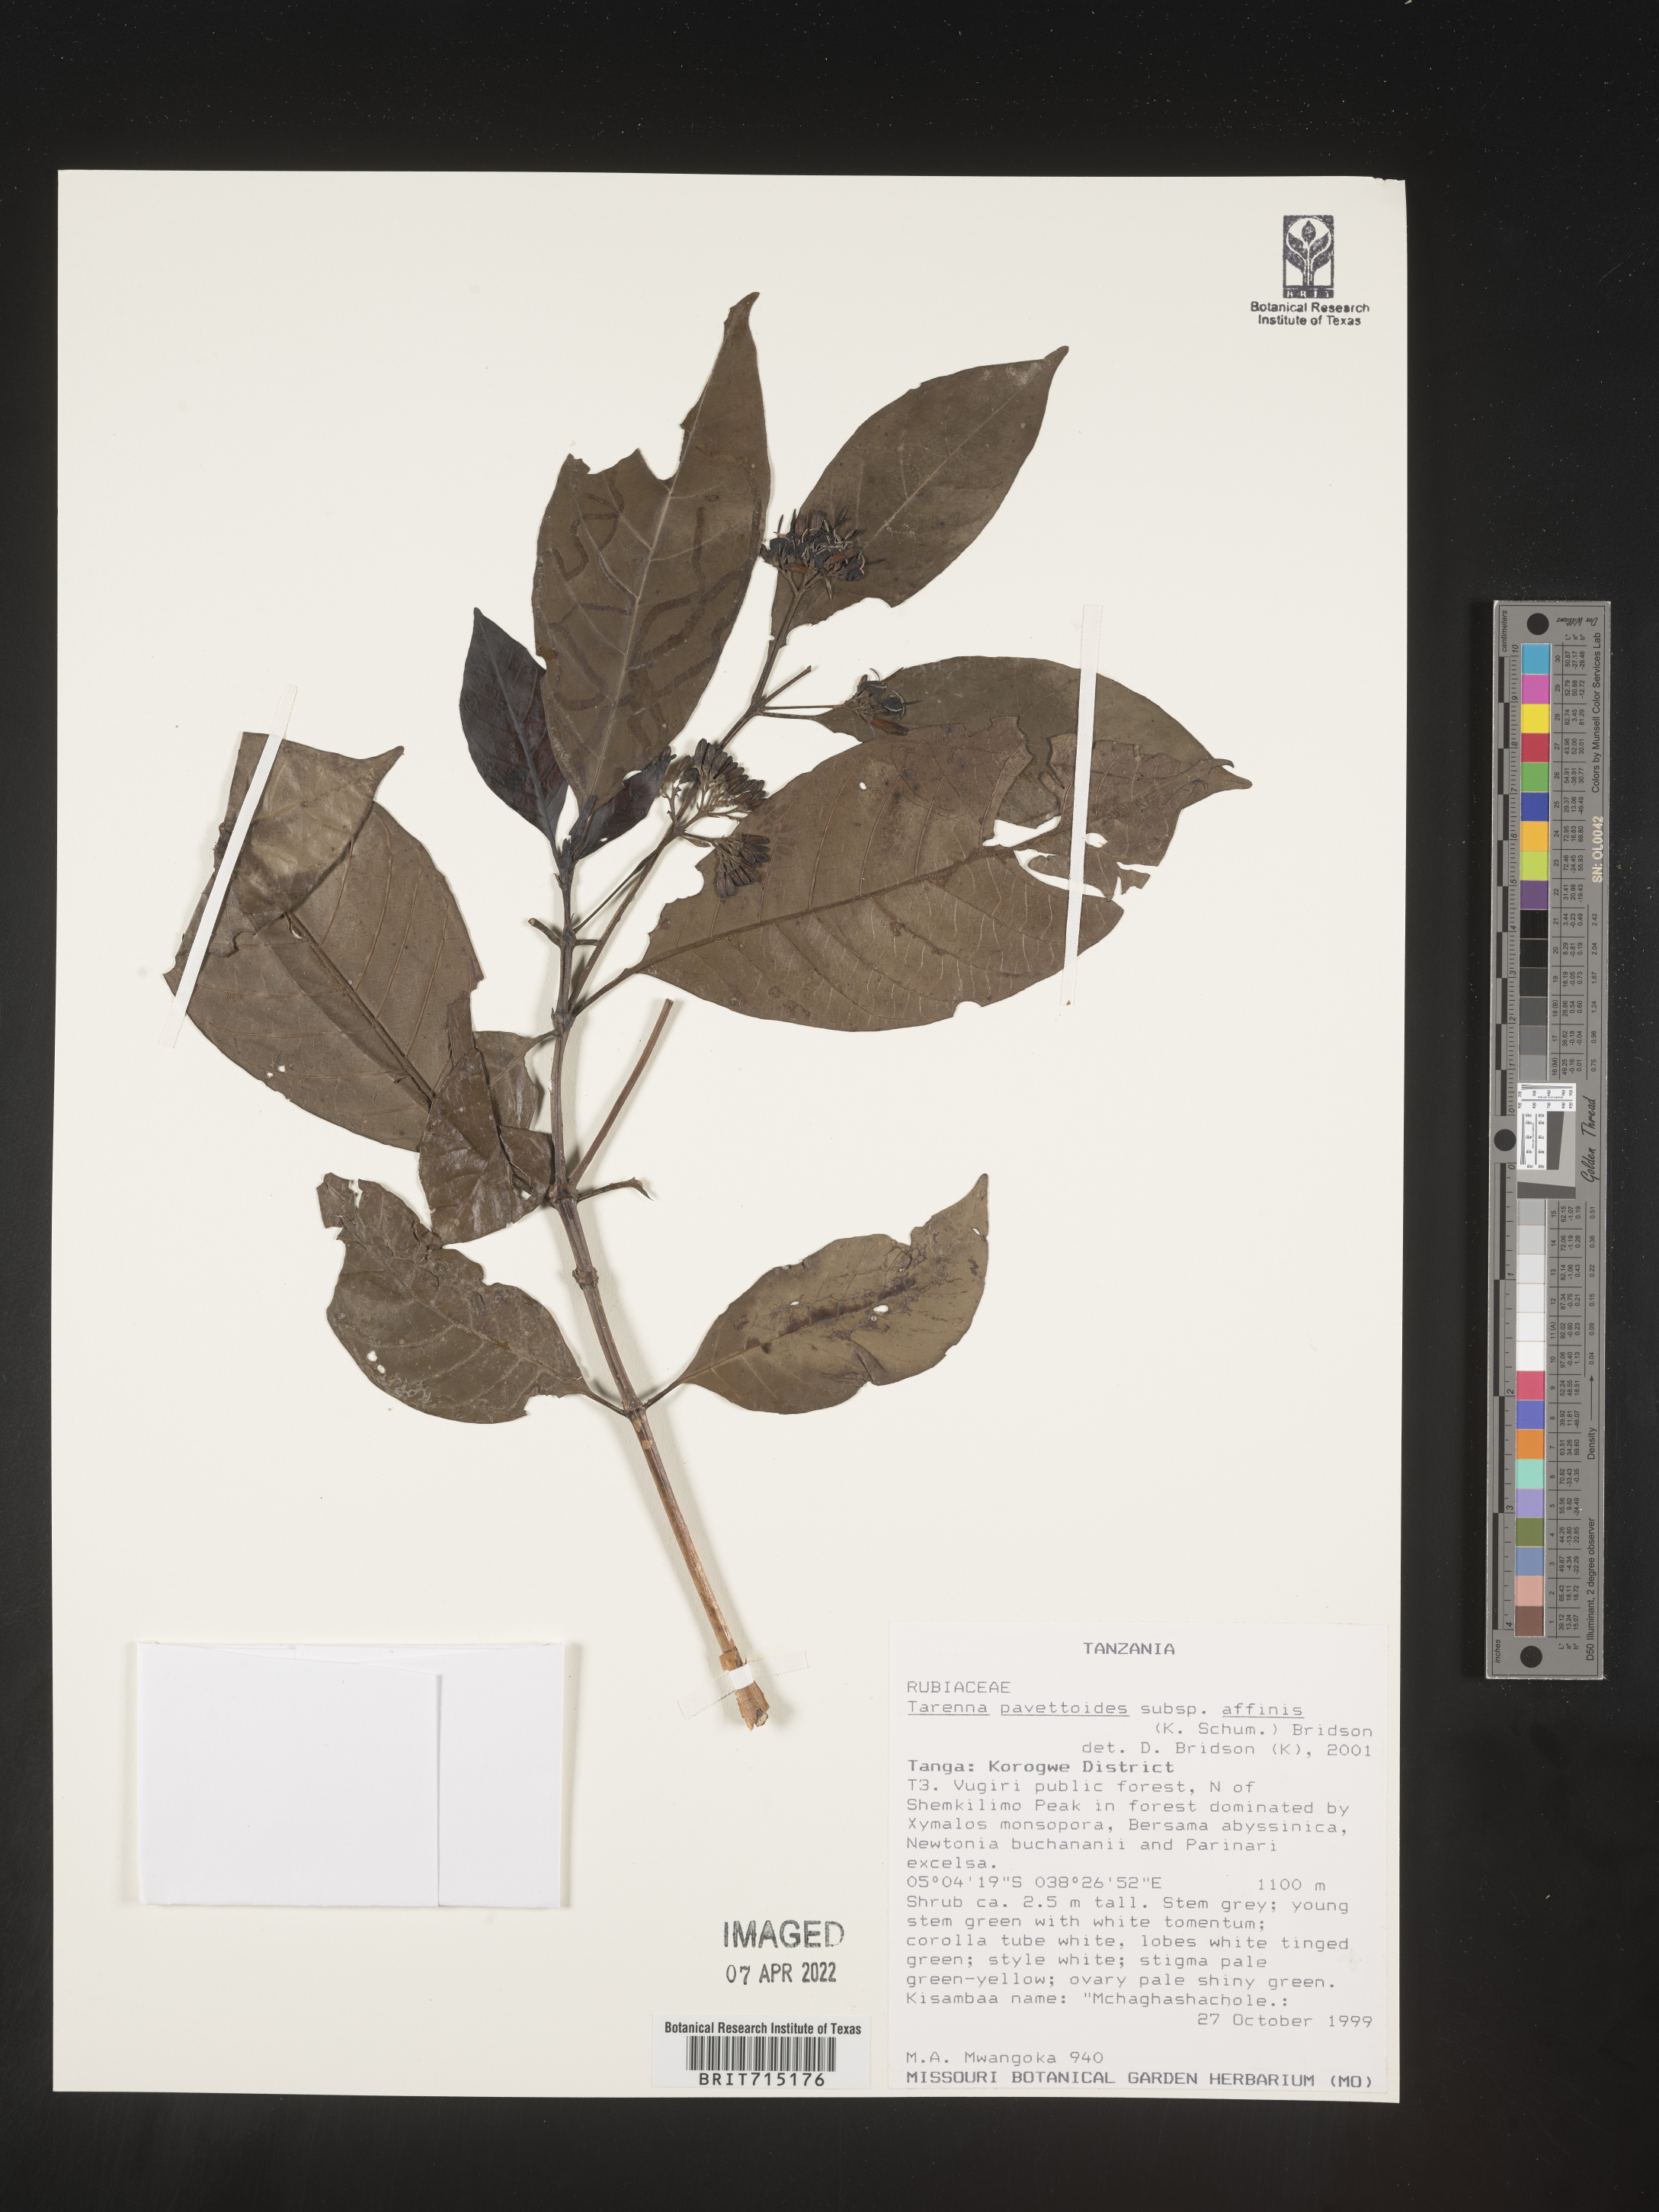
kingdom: Plantae
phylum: Tracheophyta
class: Magnoliopsida
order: Gentianales
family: Rubiaceae
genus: Tarenna
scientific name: Tarenna
